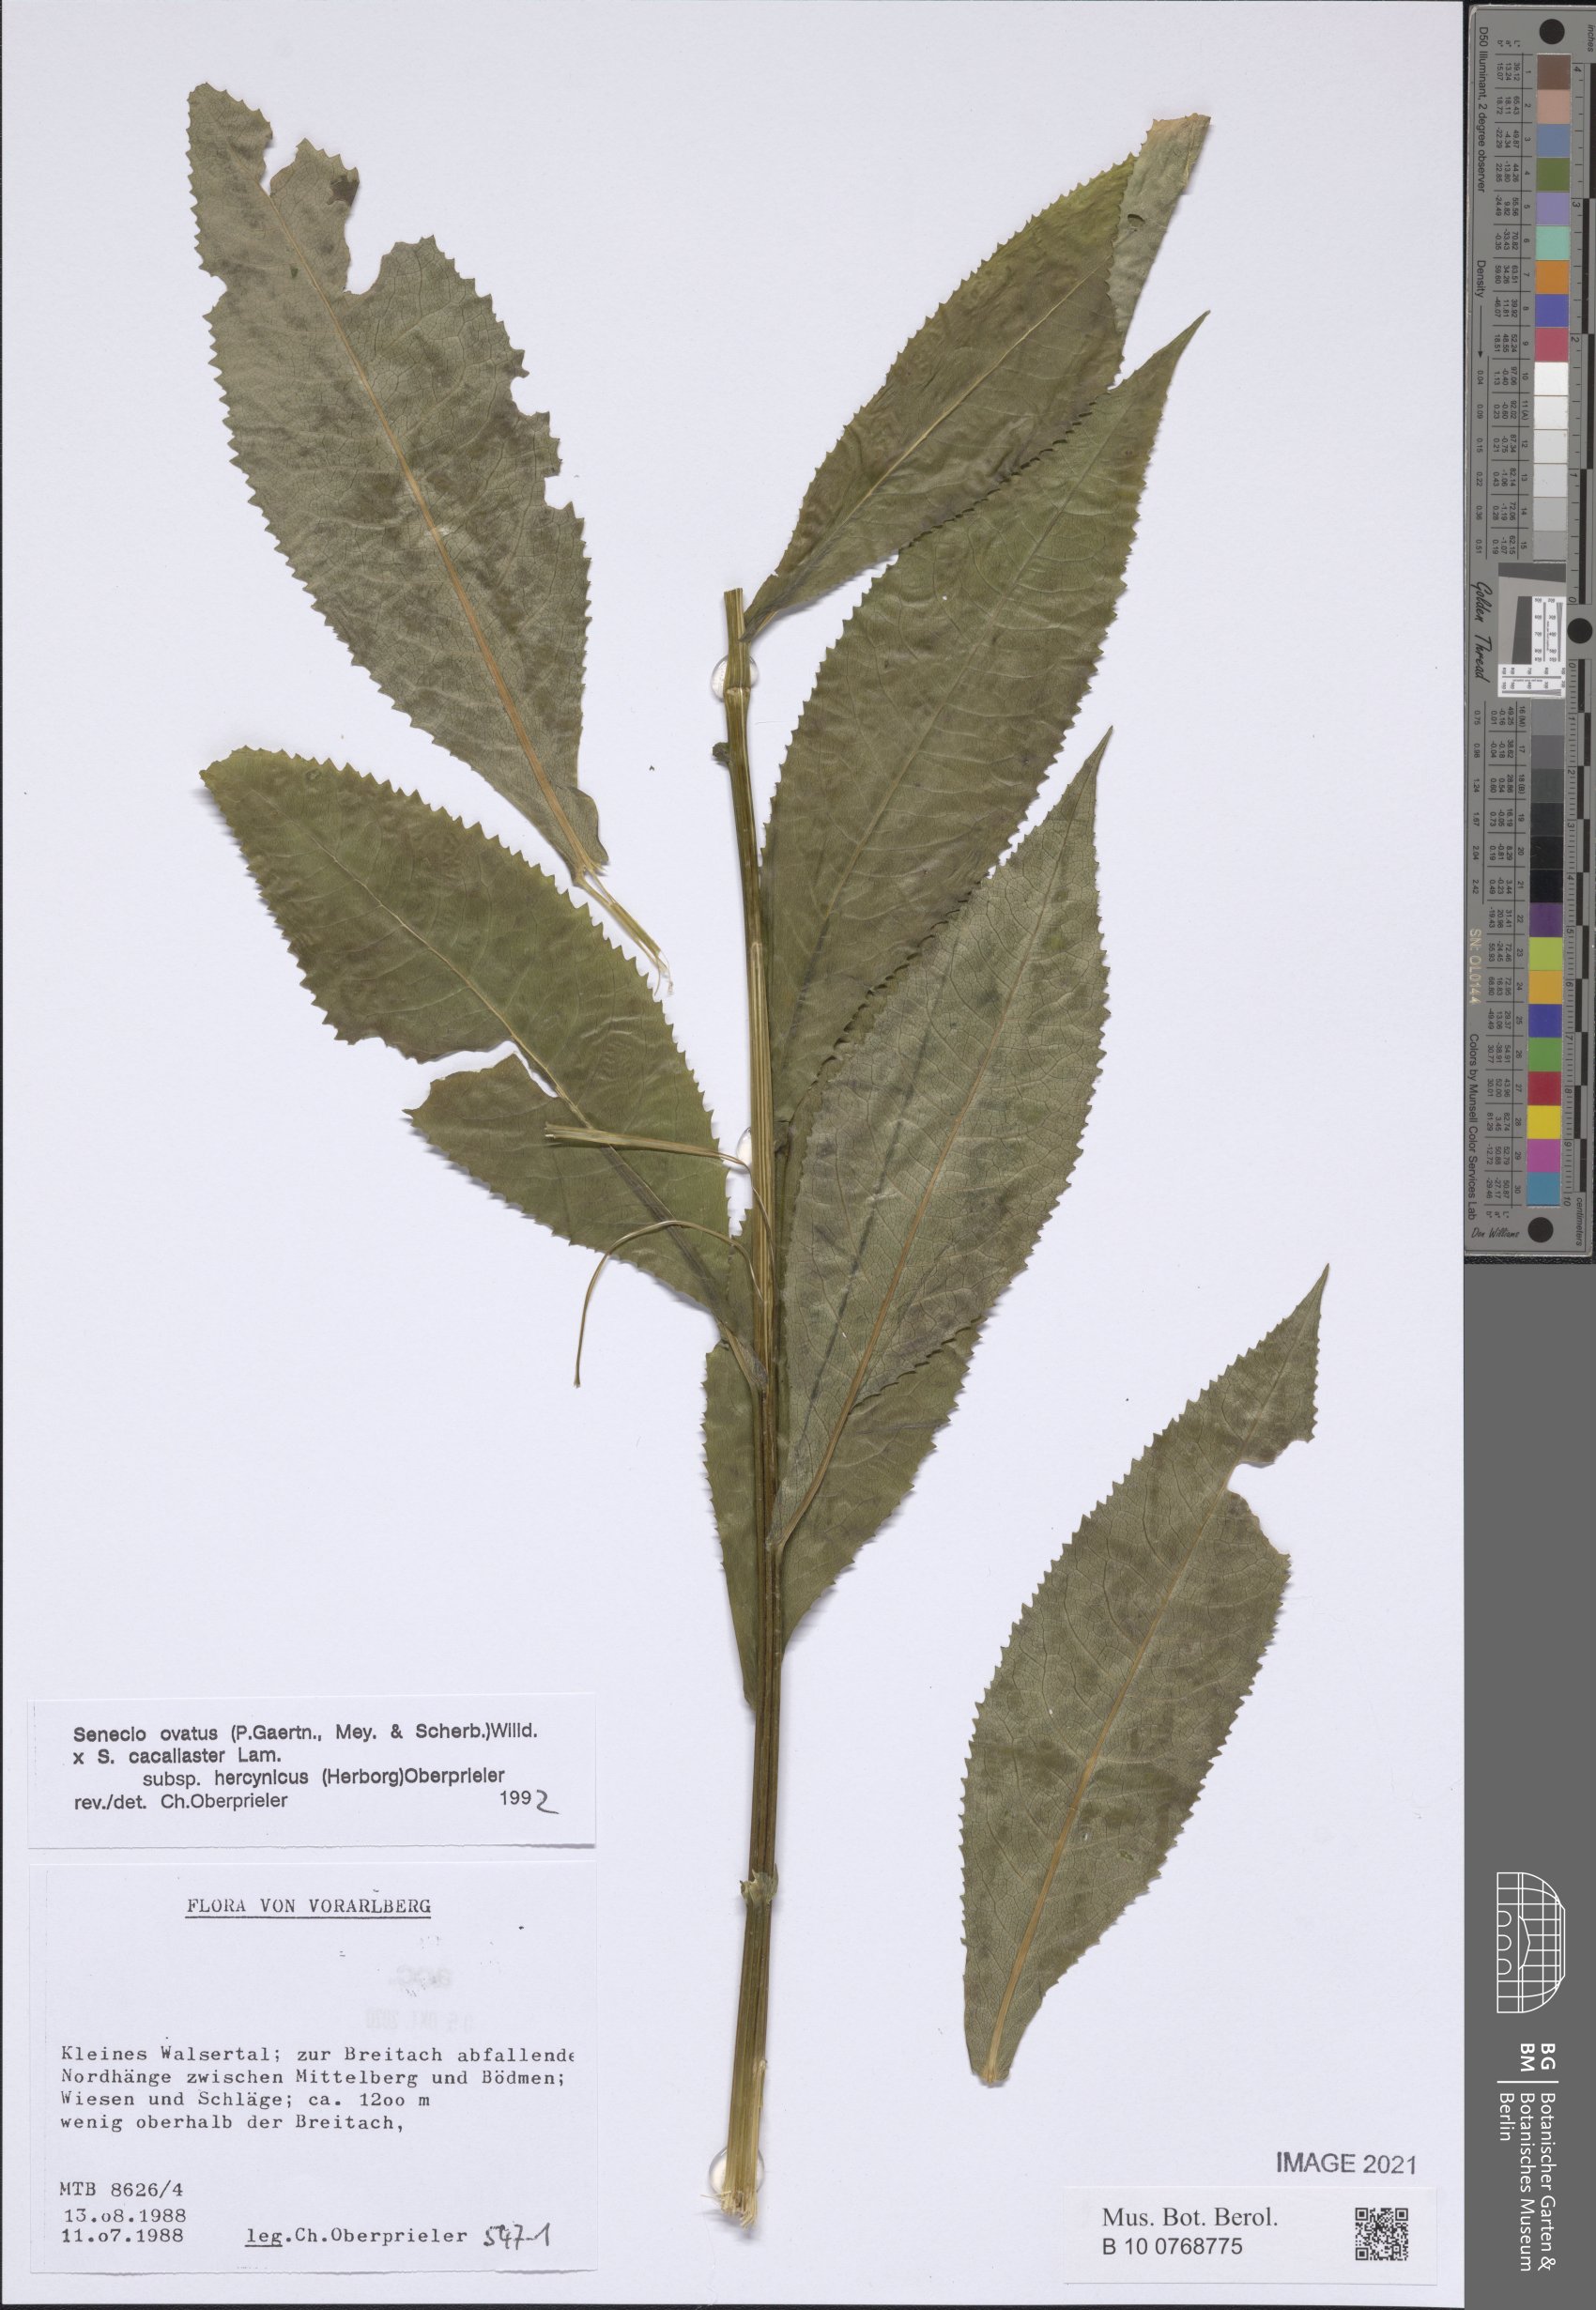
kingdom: Plantae
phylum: Tracheophyta
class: Magnoliopsida
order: Asterales
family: Asteraceae
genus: Senecio
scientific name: Senecio ovatus
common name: Wood ragwort
